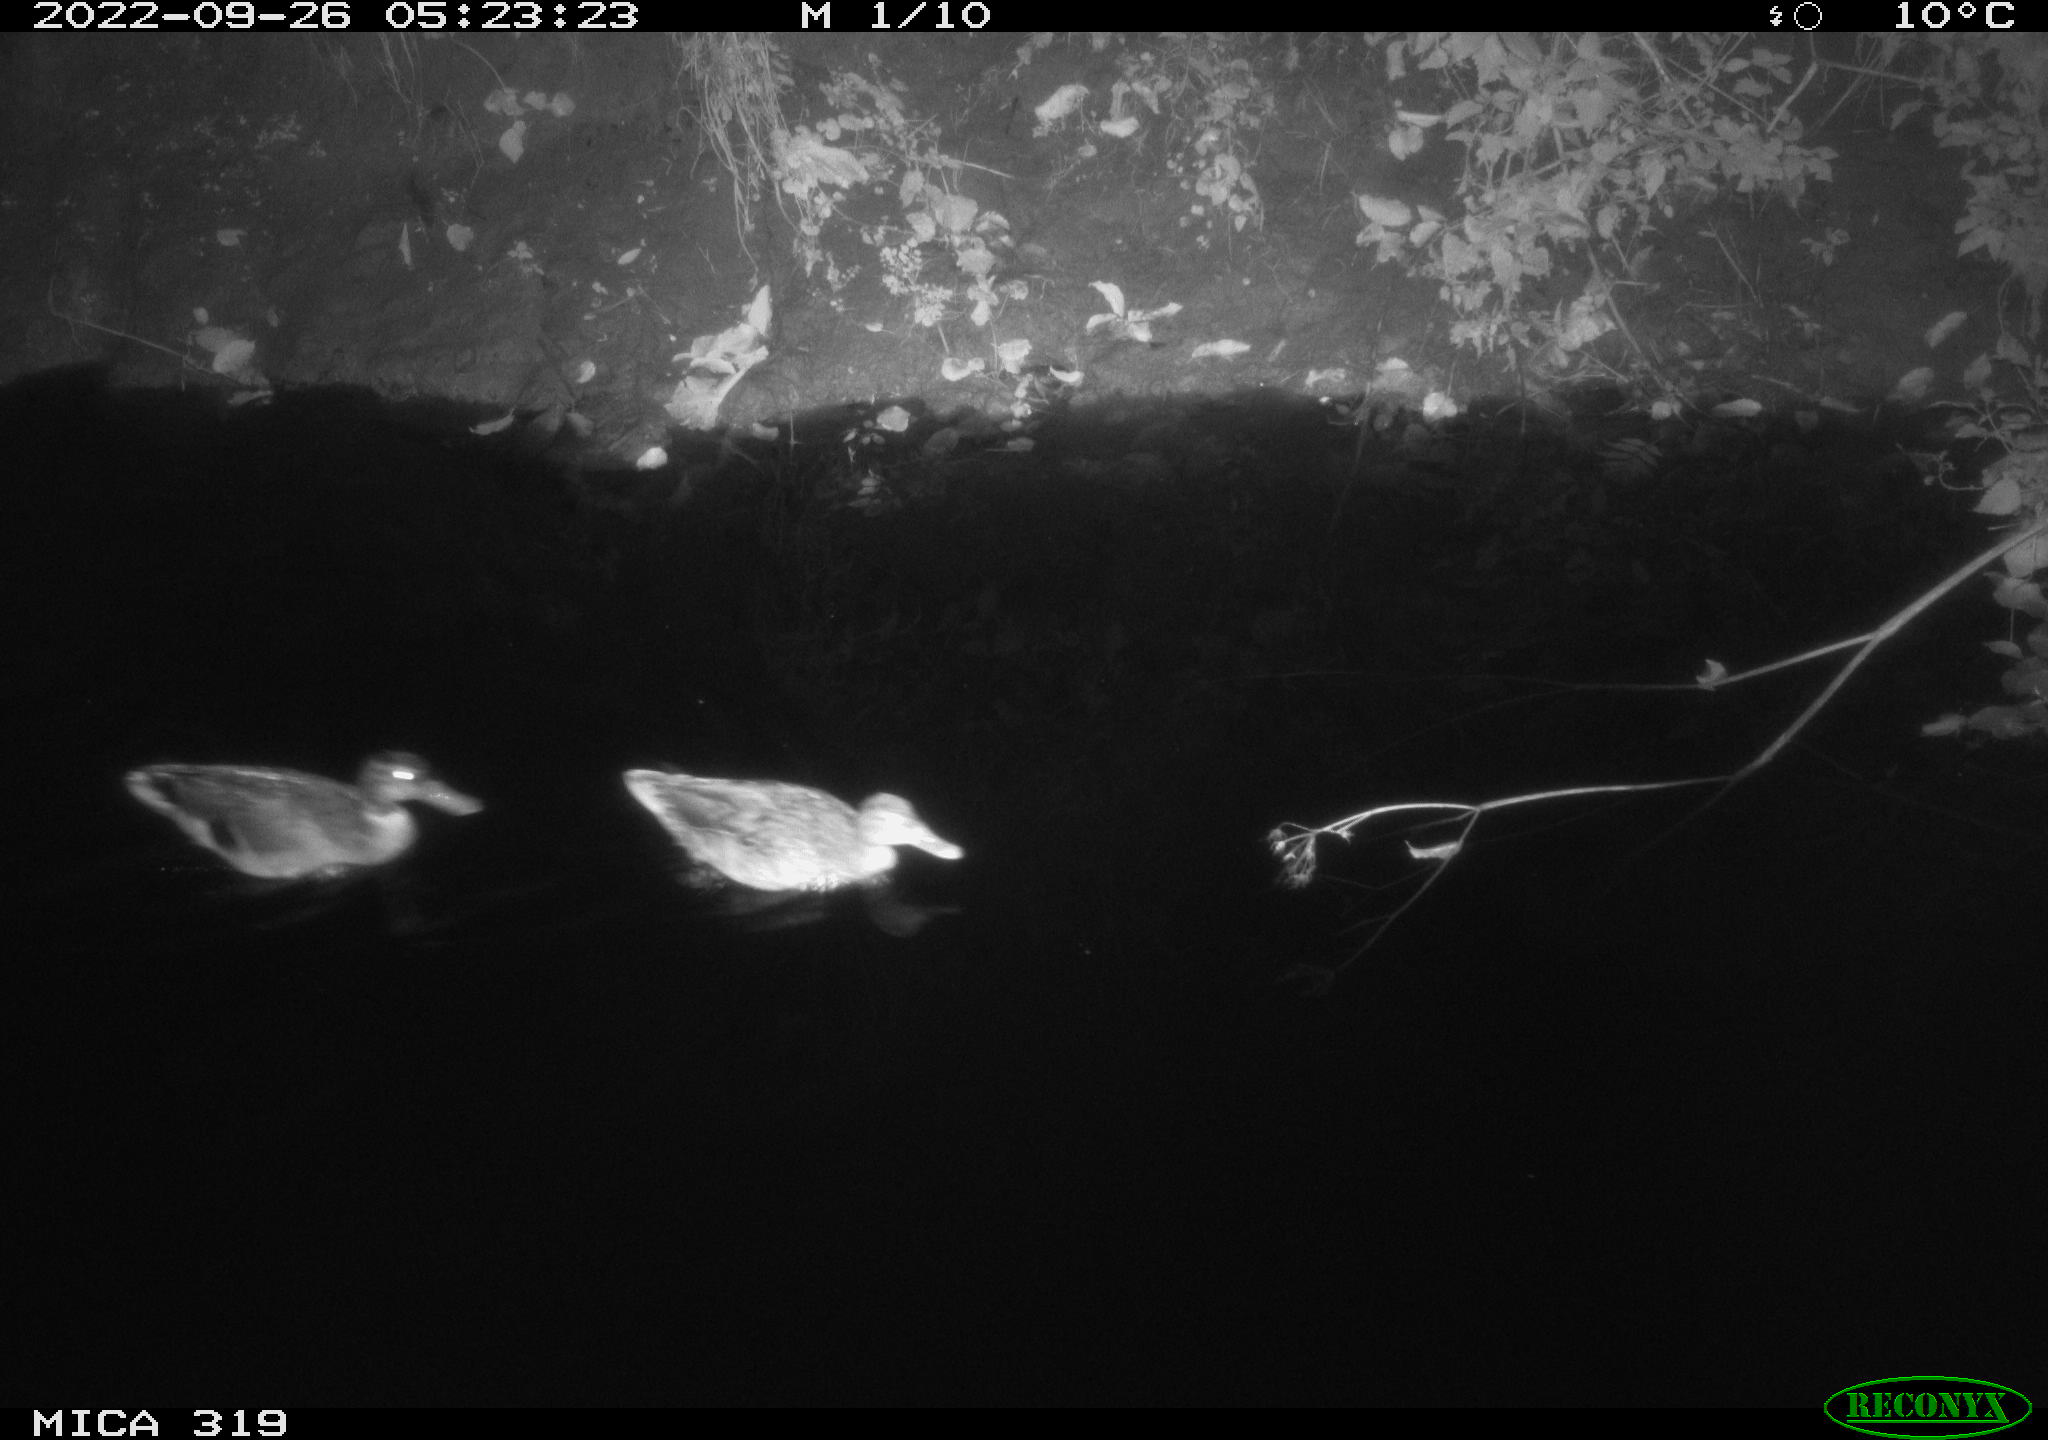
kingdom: Animalia
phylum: Chordata
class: Aves
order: Anseriformes
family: Anatidae
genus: Anas
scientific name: Anas
